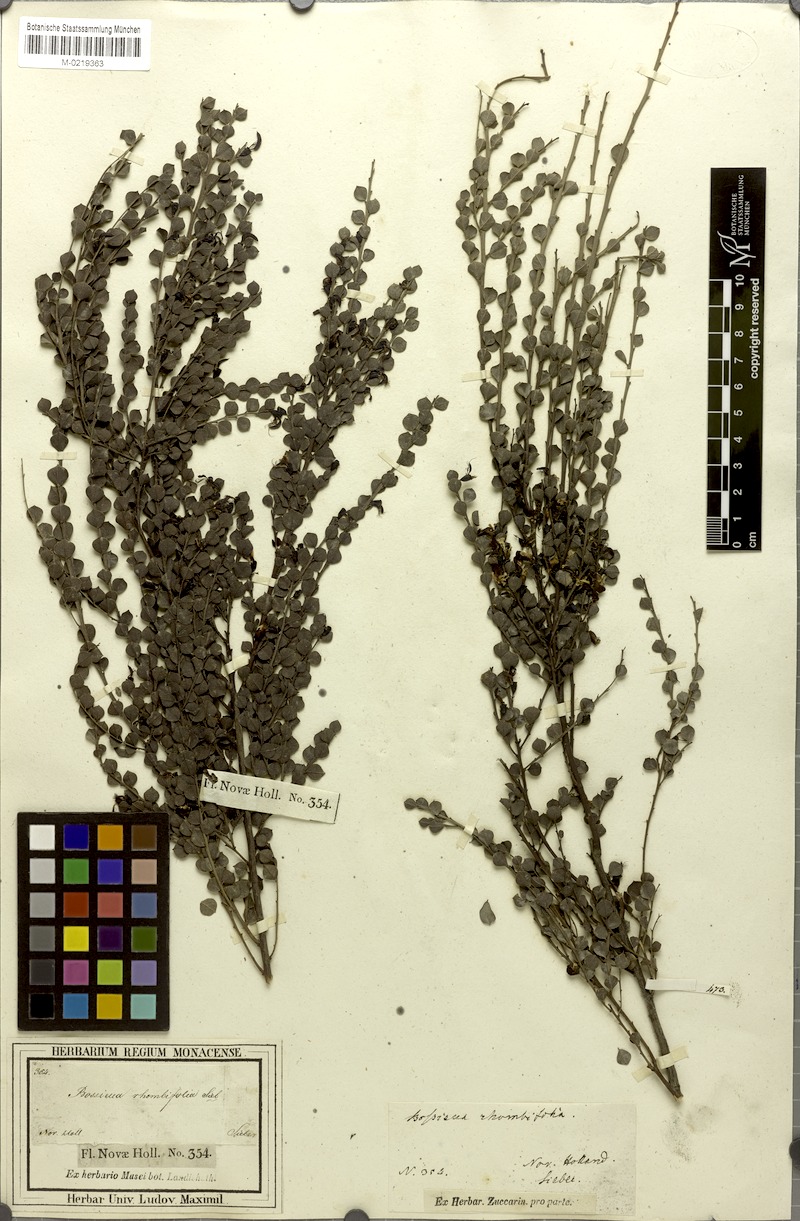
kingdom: Plantae
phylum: Tracheophyta
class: Magnoliopsida
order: Fabales
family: Fabaceae
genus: Bossiaea
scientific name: Bossiaea rhombifolia
